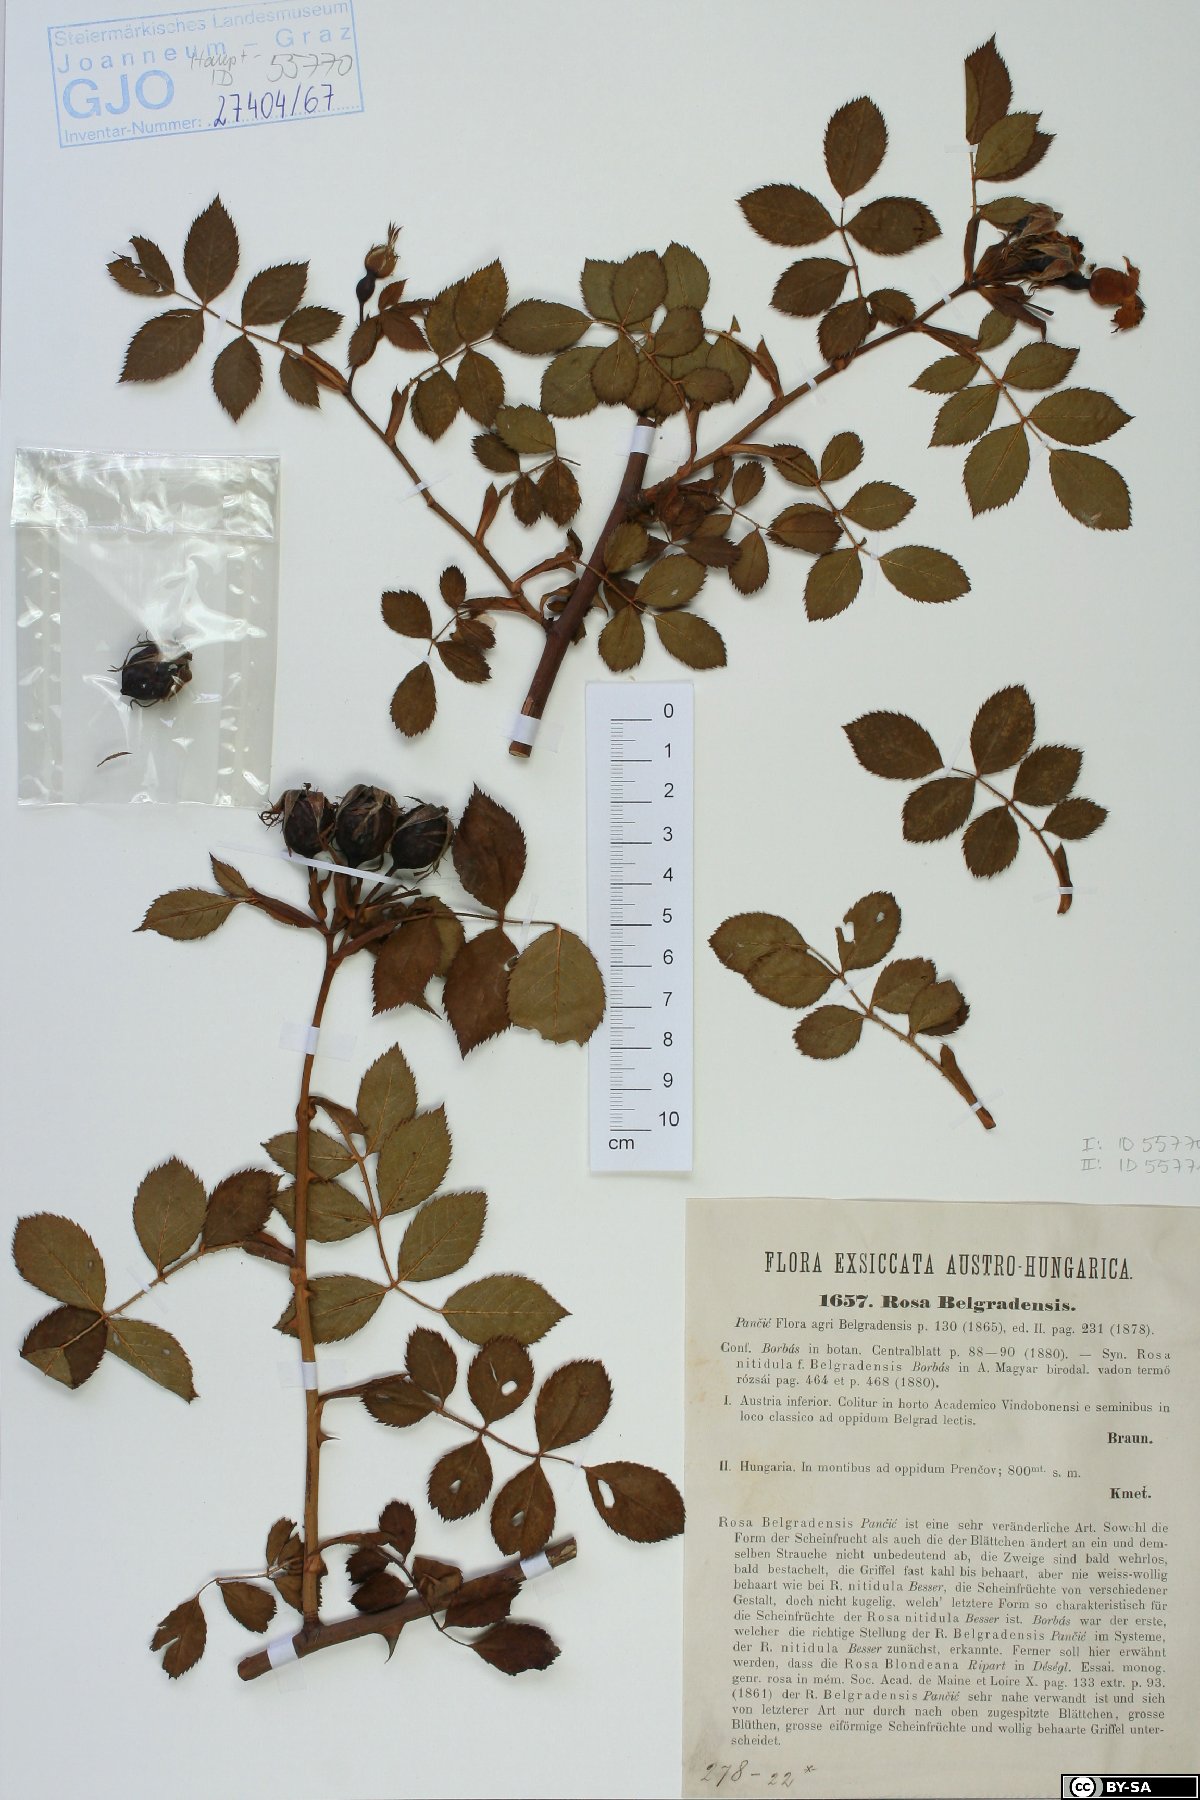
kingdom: Plantae
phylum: Tracheophyta
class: Magnoliopsida
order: Rosales
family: Rosaceae
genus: Rosa
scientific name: Rosa belnensis
